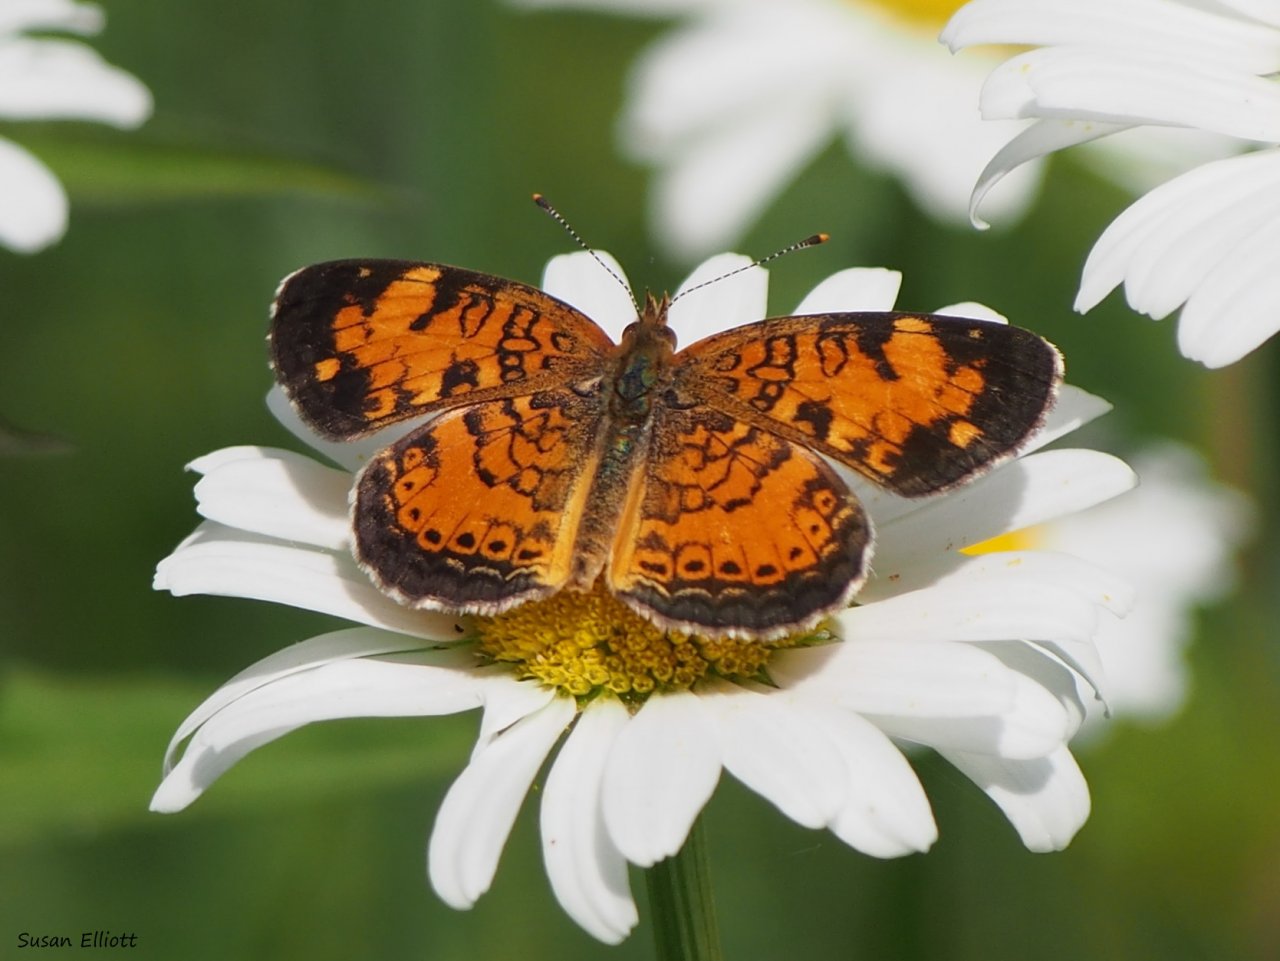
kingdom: Animalia
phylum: Arthropoda
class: Insecta
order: Lepidoptera
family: Nymphalidae
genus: Phyciodes
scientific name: Phyciodes
